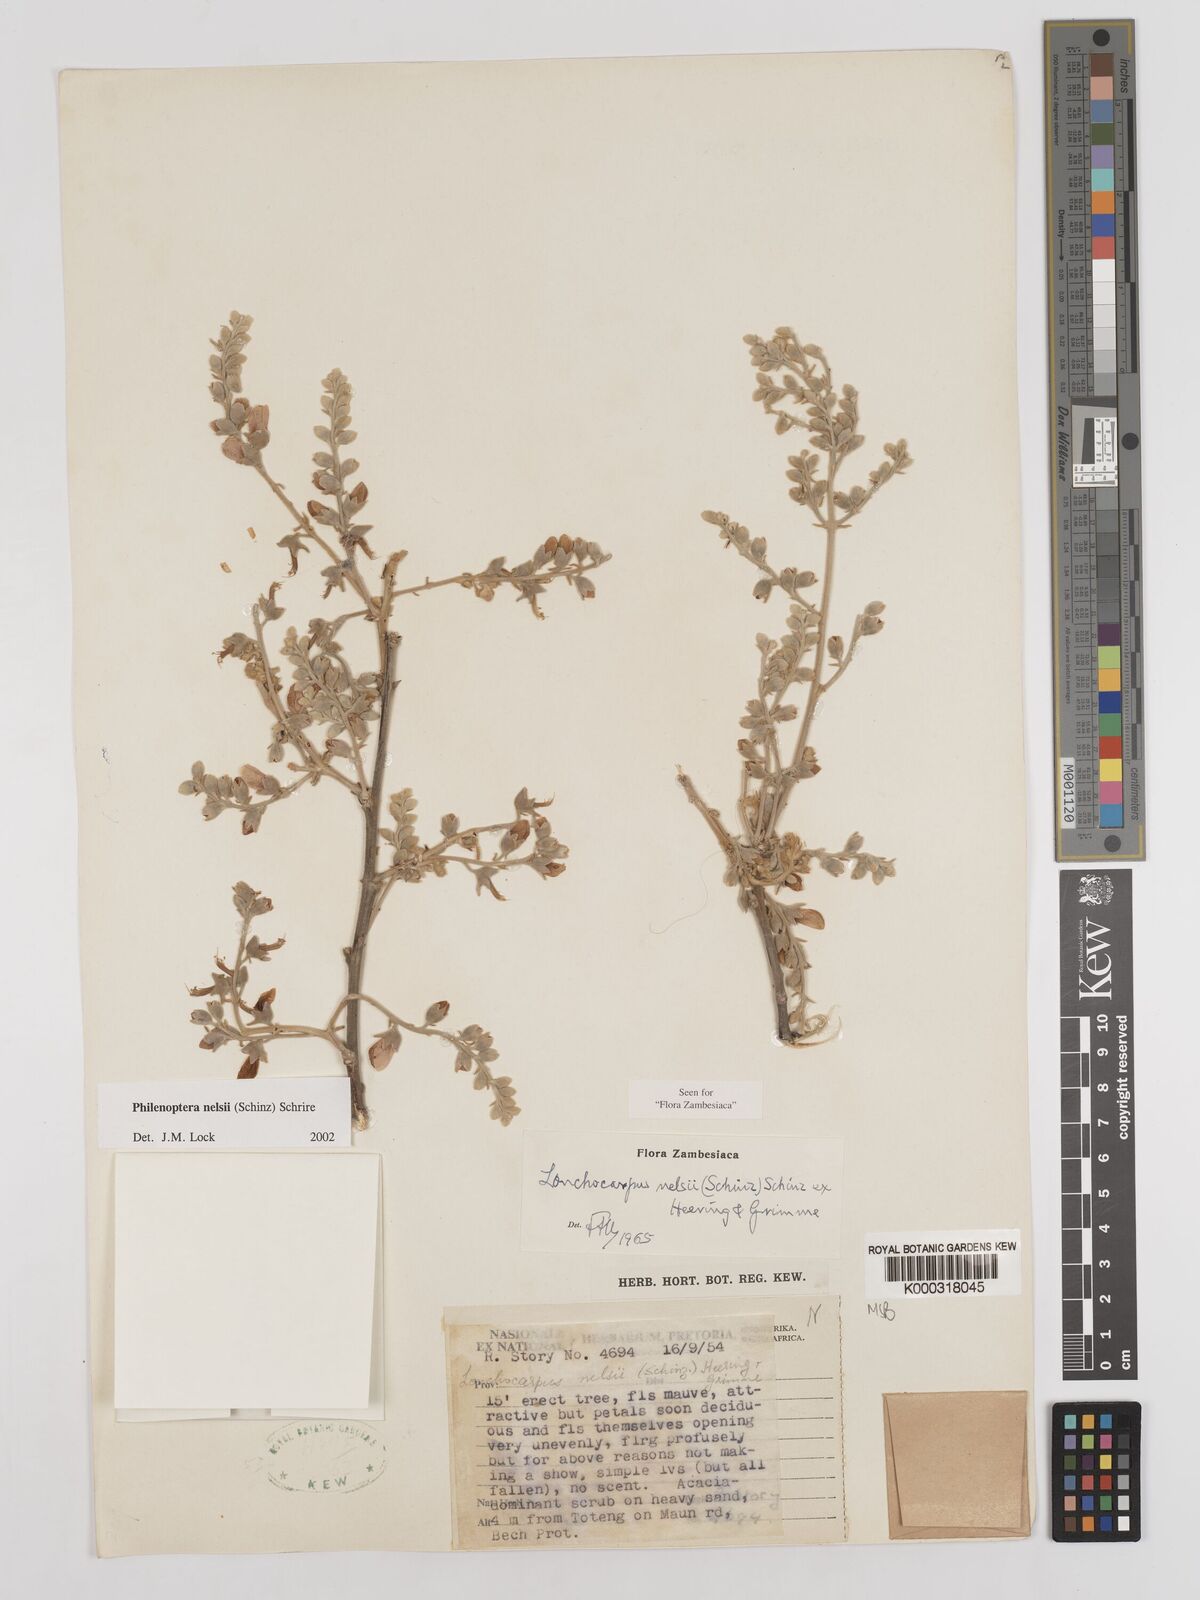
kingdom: Plantae
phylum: Tracheophyta
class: Magnoliopsida
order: Fabales
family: Fabaceae
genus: Philenoptera
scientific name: Philenoptera nelsii
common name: Kalahari apple-leaf
